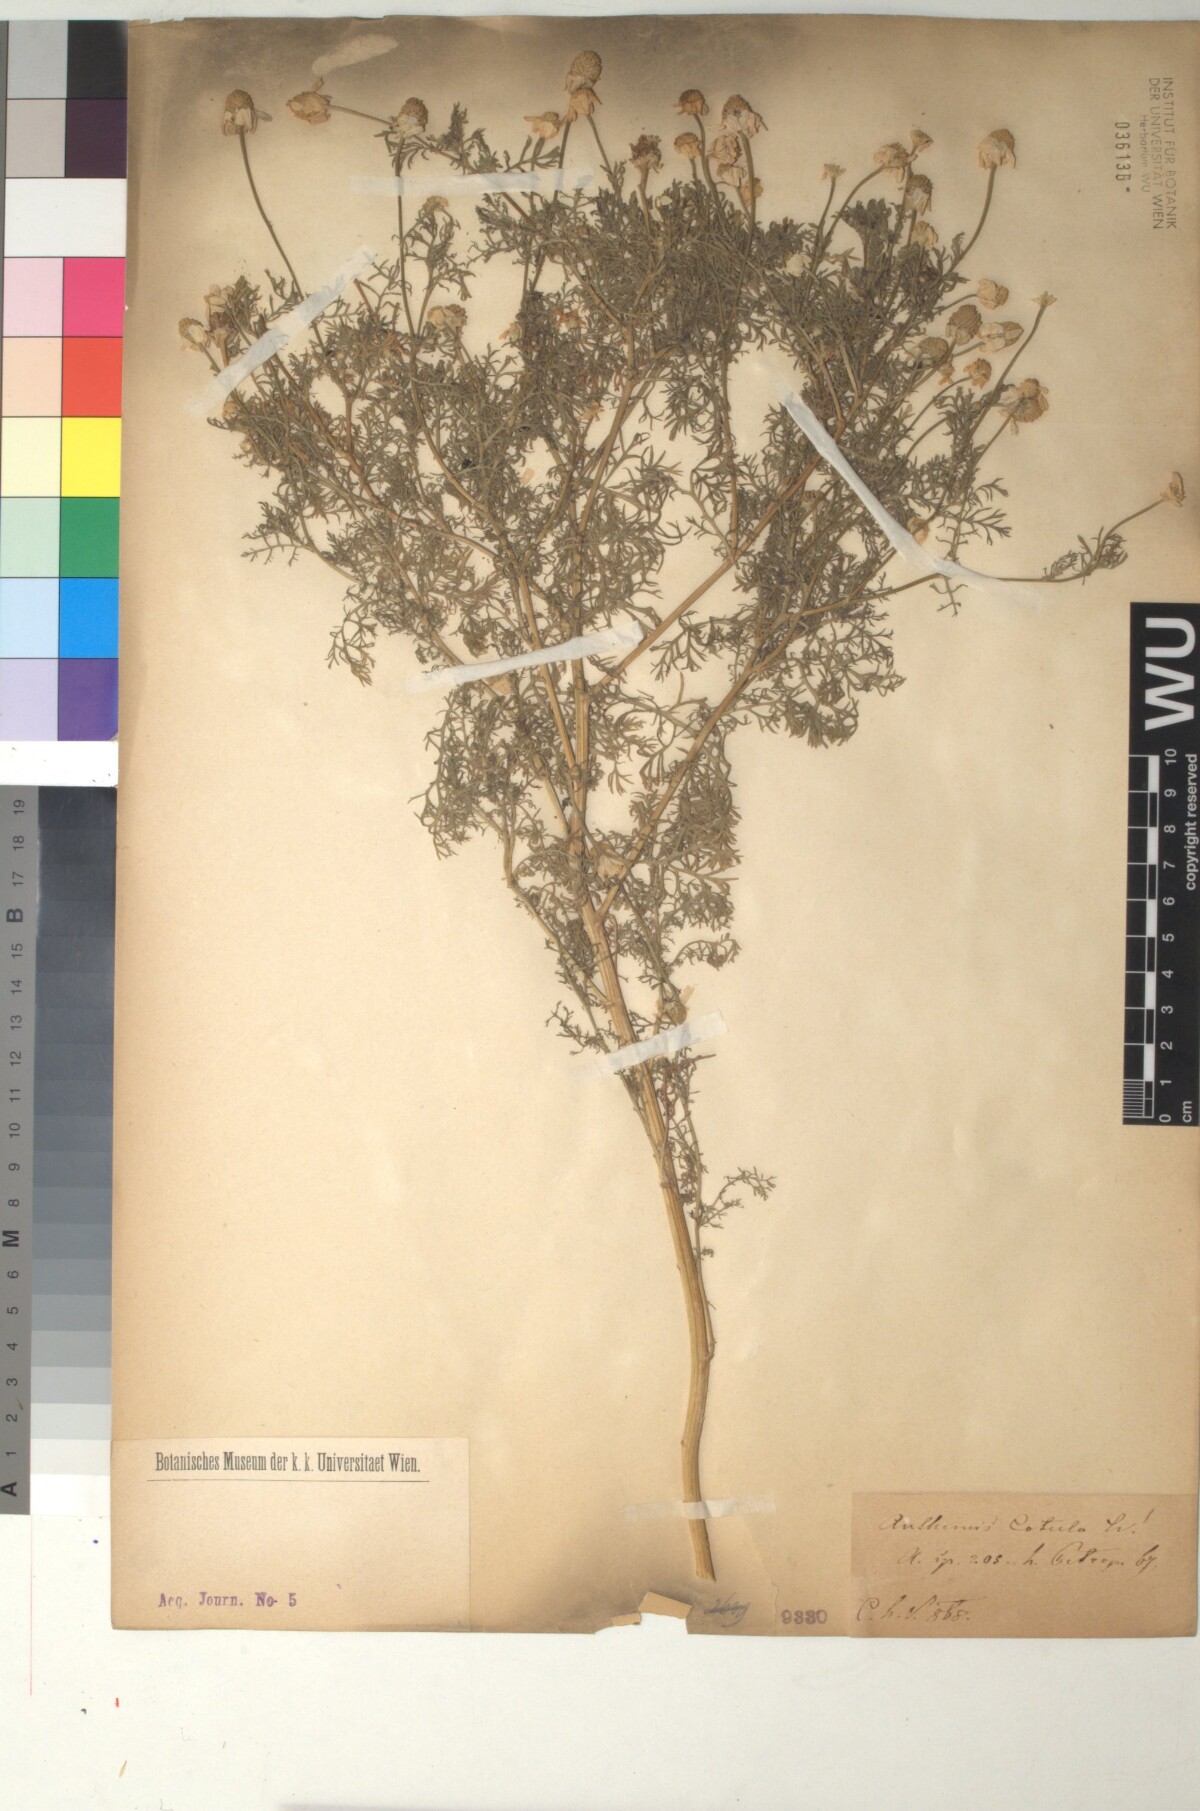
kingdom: Plantae
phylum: Tracheophyta
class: Magnoliopsida
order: Asterales
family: Asteraceae
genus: Anthemis
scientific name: Anthemis cotula
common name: Stinking chamomile
